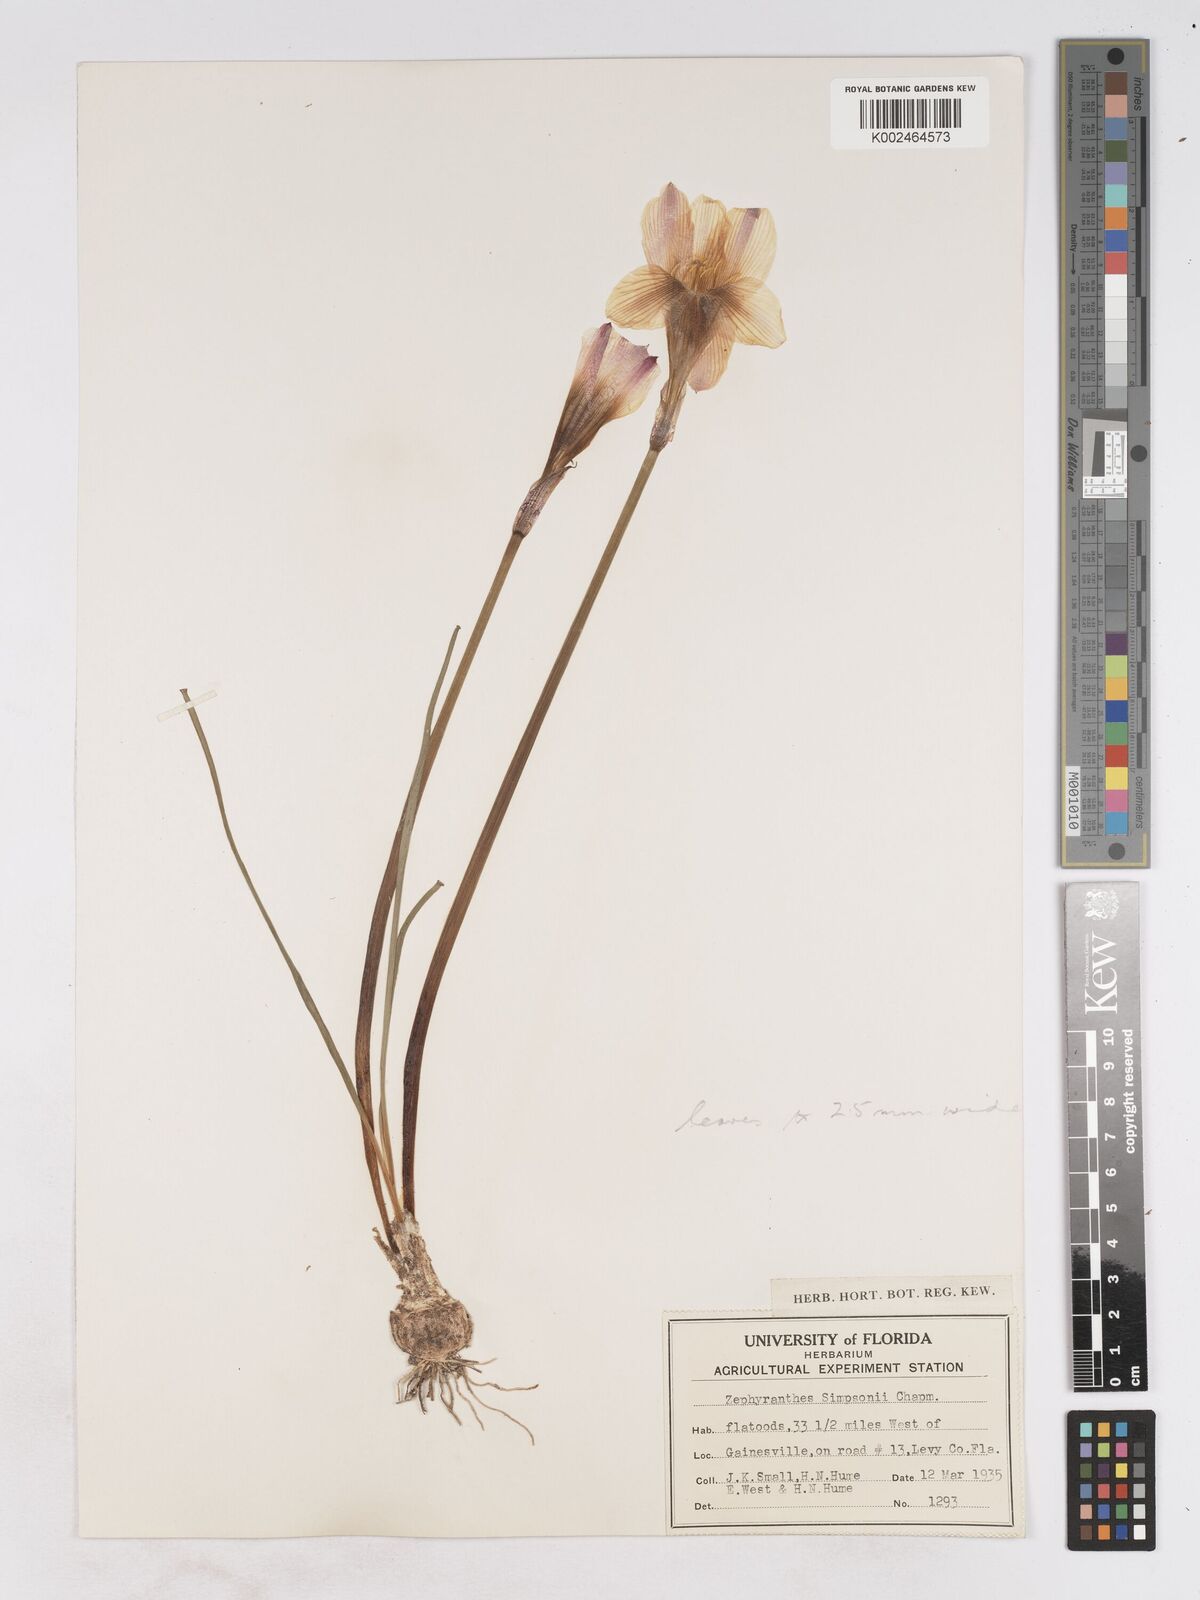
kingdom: Plantae
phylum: Tracheophyta
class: Liliopsida
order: Asparagales
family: Amaryllidaceae
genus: Zephyranthes
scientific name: Zephyranthes simpsonii
